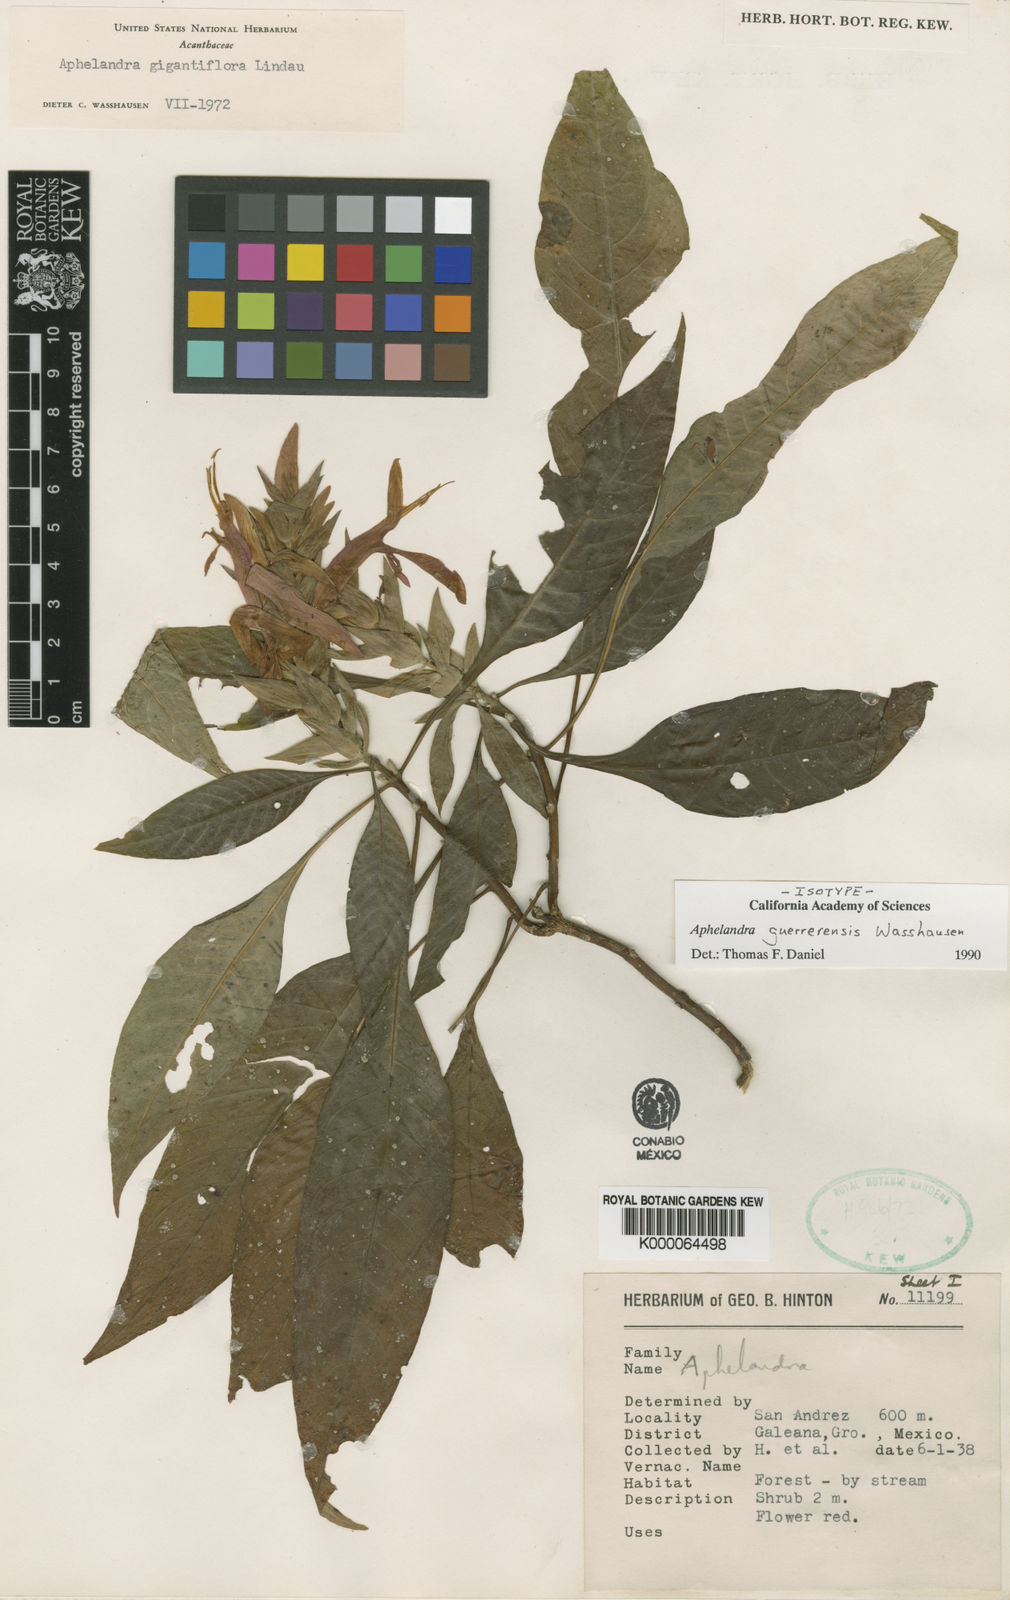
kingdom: Plantae
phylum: Tracheophyta
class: Magnoliopsida
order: Lamiales
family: Acanthaceae
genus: Aphelandra
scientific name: Aphelandra guerrerensis
